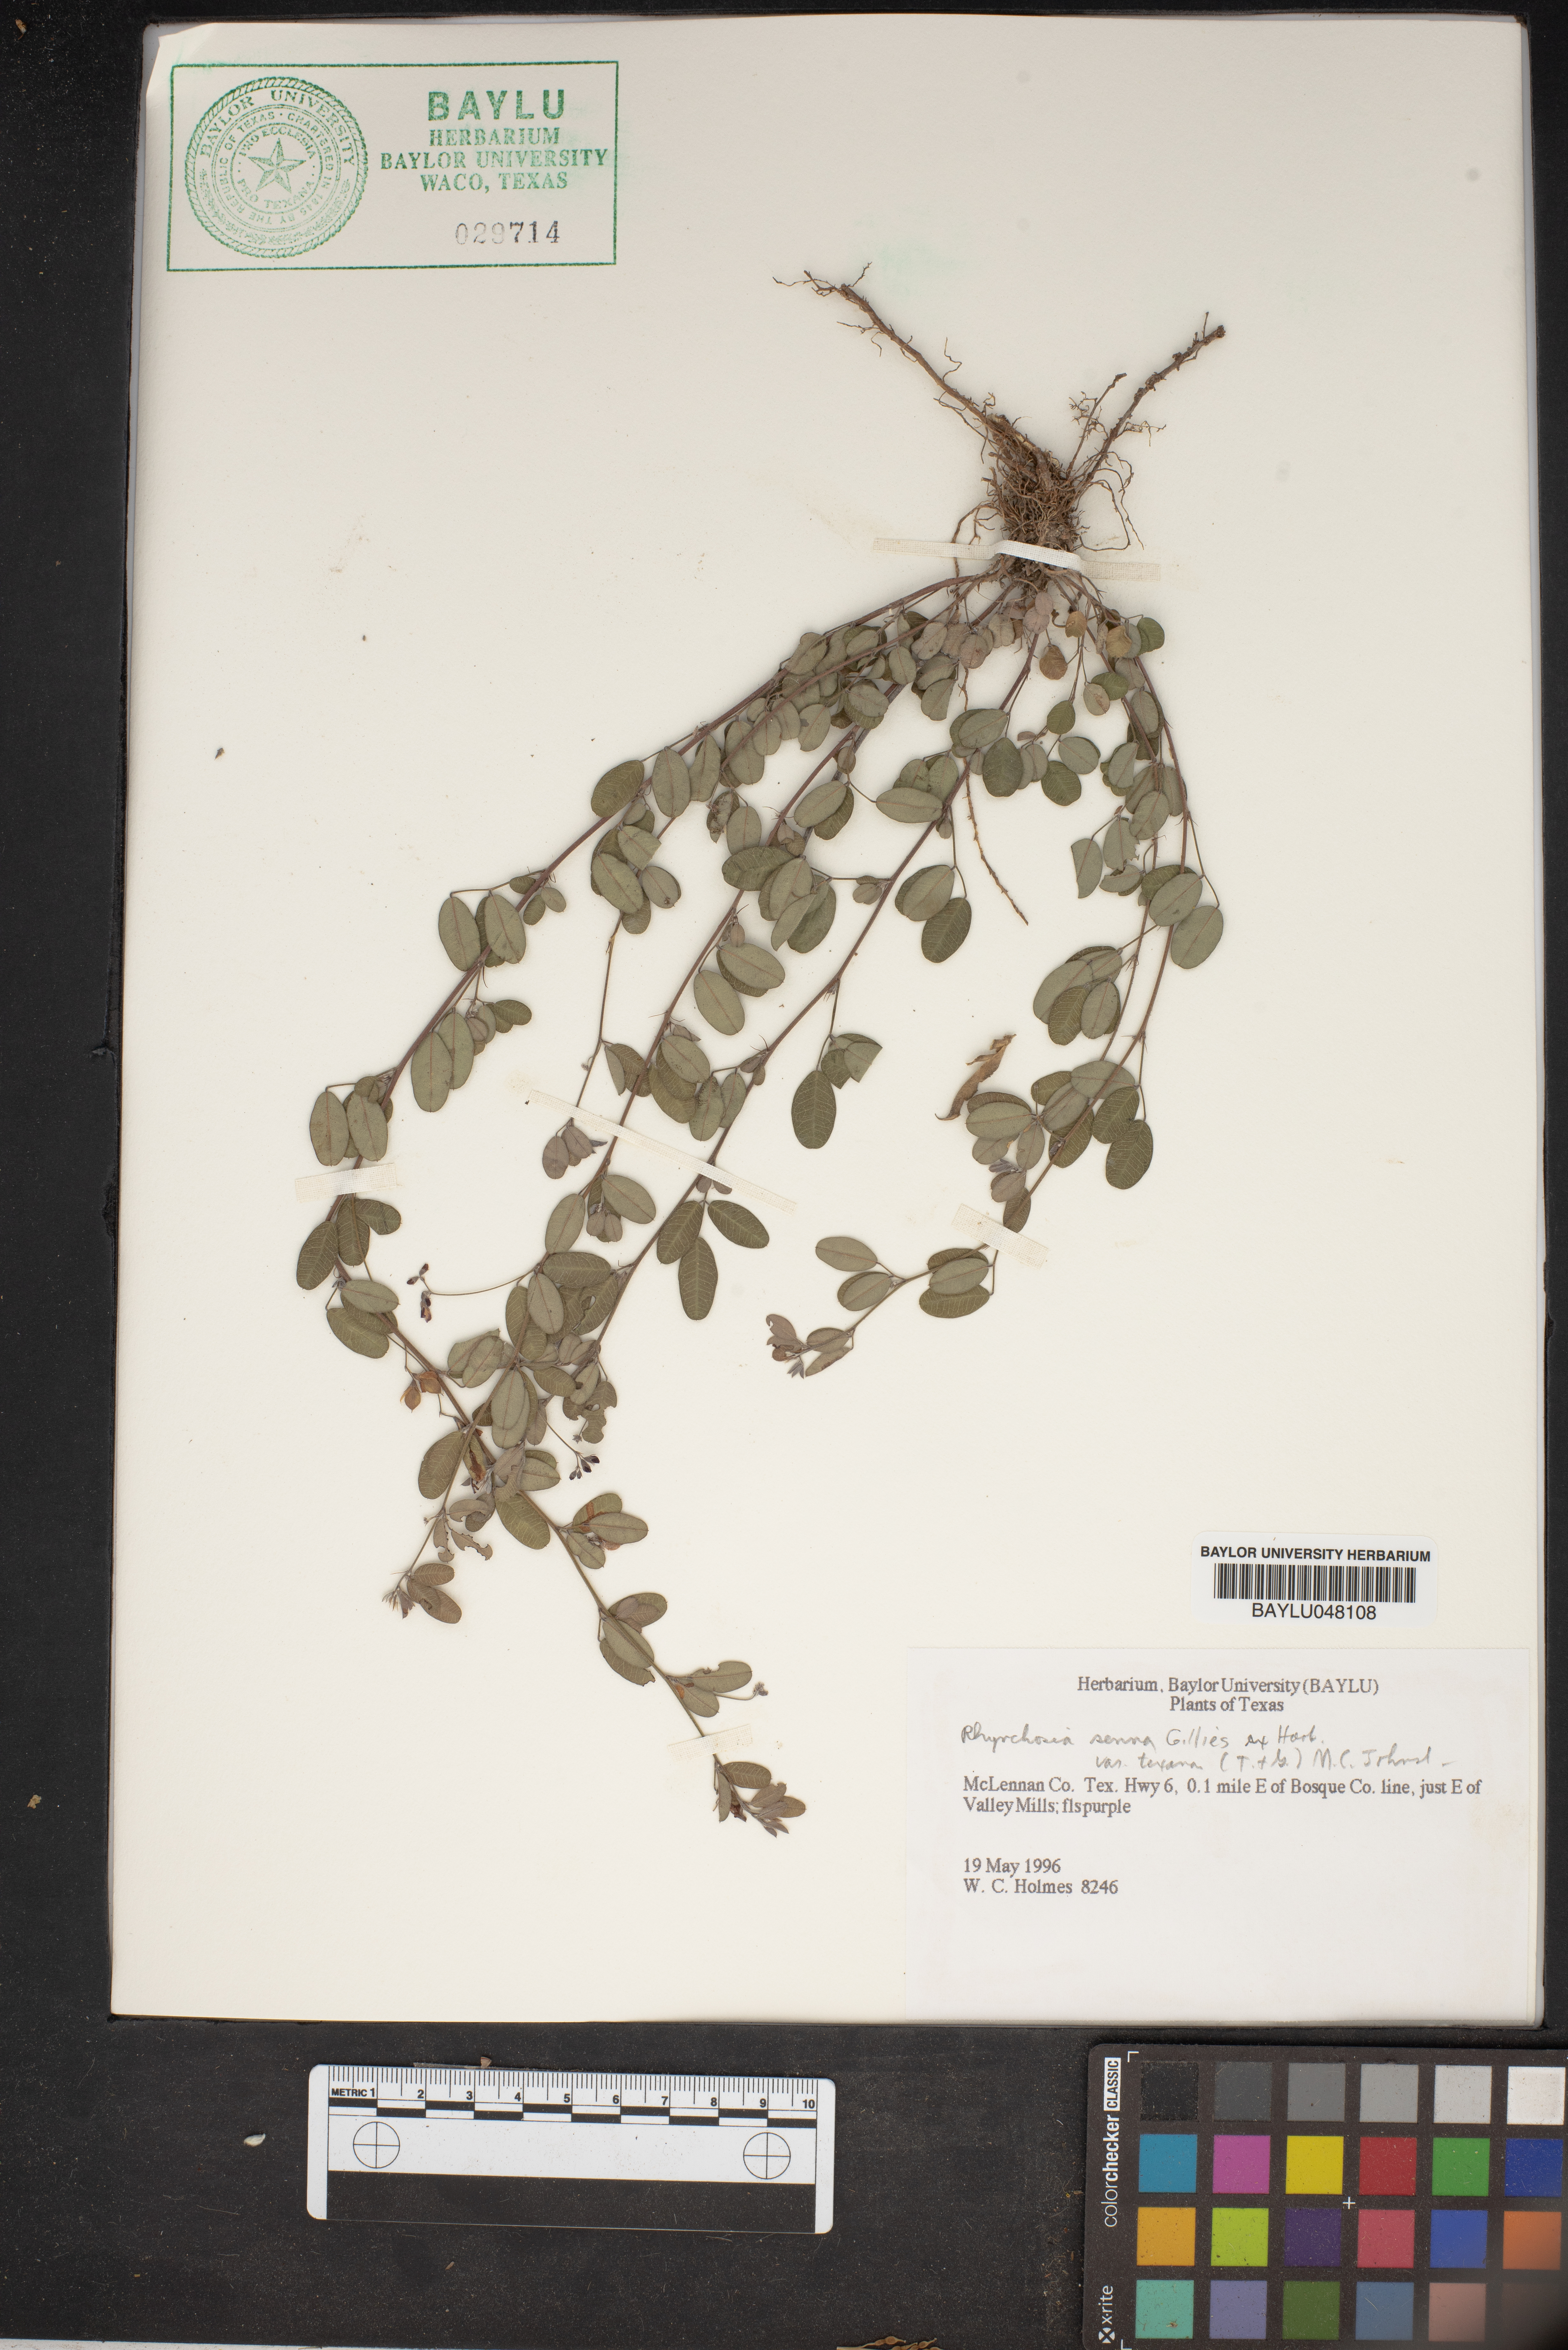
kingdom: Plantae
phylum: Tracheophyta
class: Magnoliopsida
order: Fabales
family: Fabaceae
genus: Rhynchosia
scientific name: Rhynchosia senna
